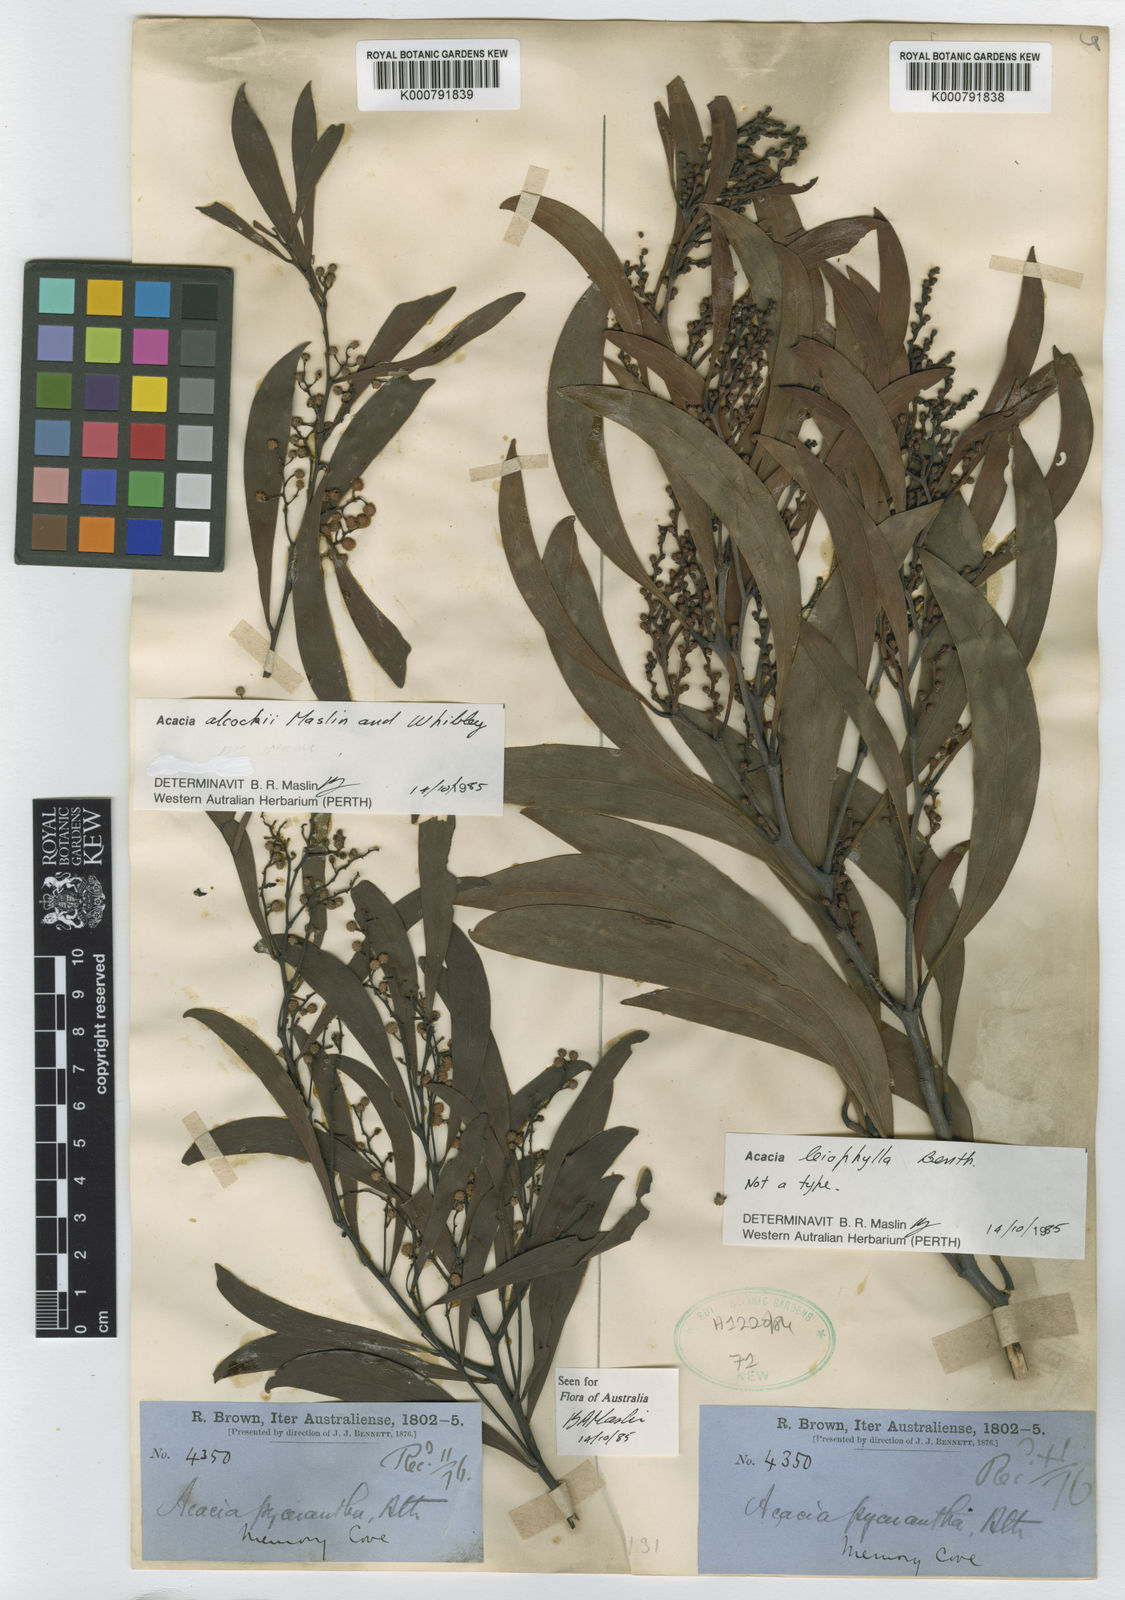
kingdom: Plantae
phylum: Tracheophyta
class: Magnoliopsida
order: Fabales
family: Fabaceae
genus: Acacia
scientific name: Acacia gillii
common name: Gill's wattle
